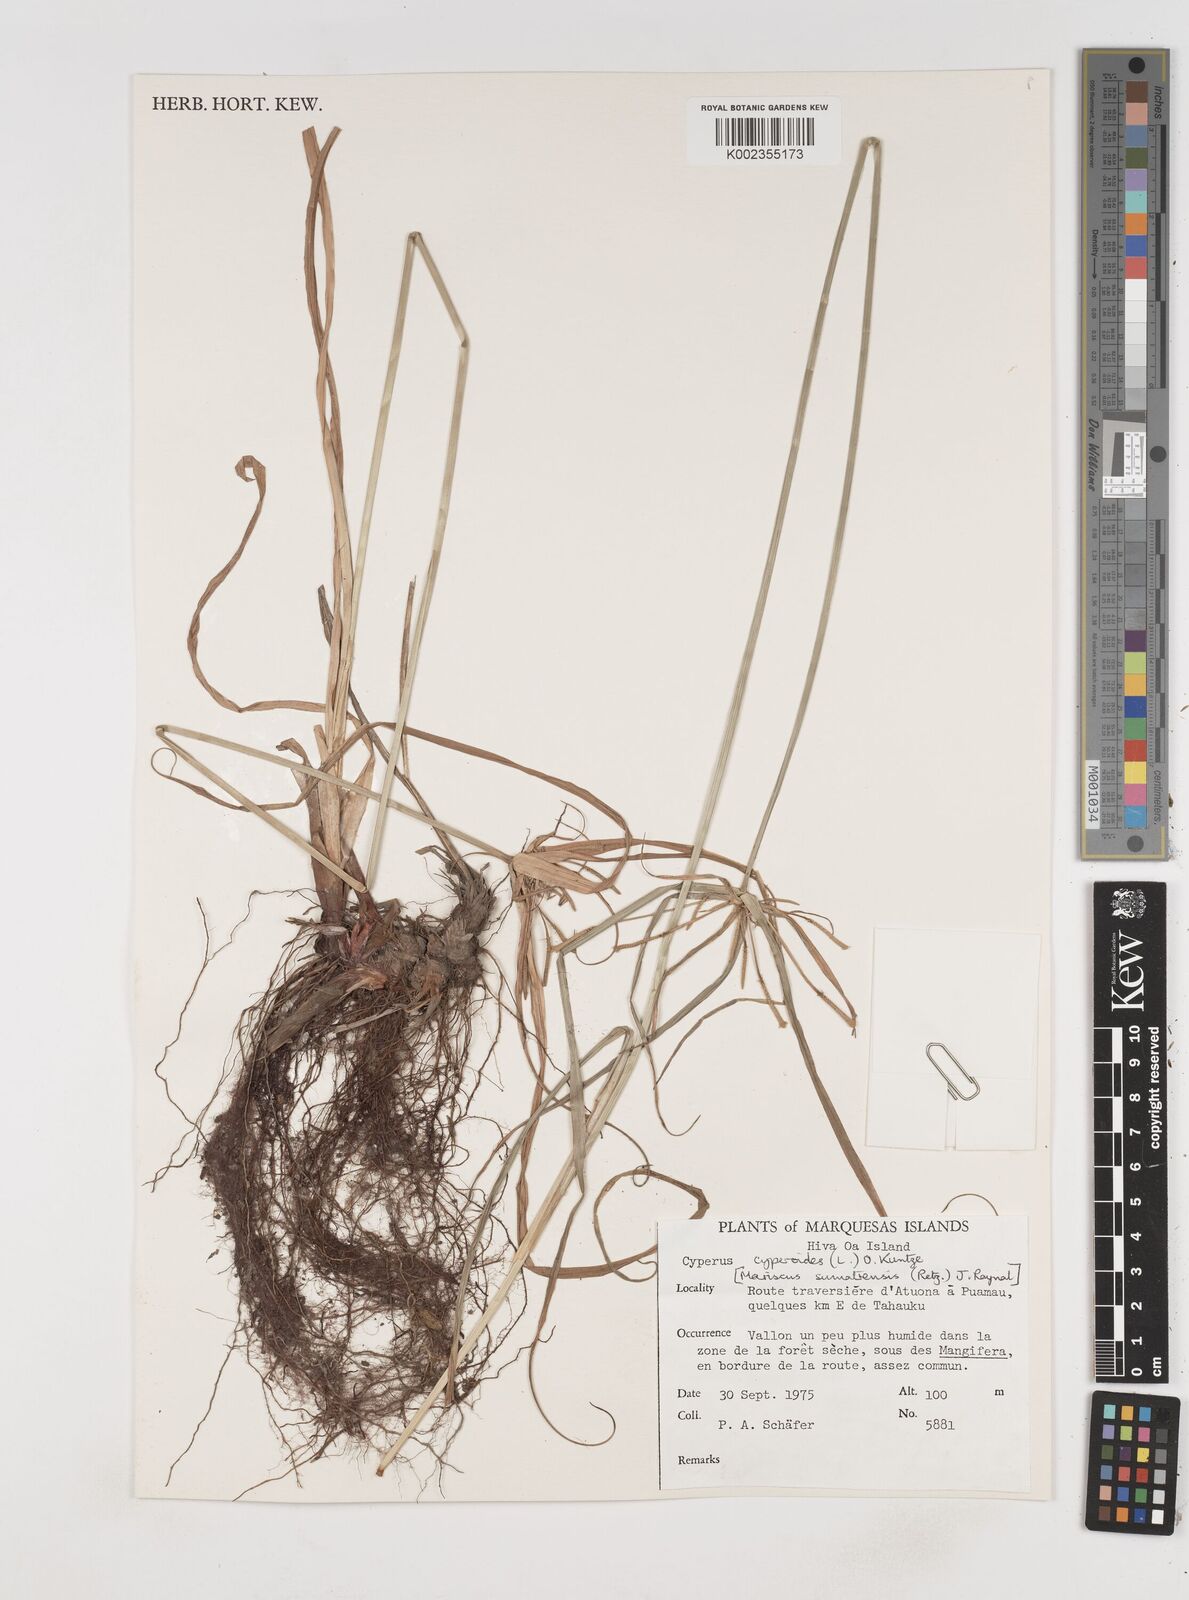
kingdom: Plantae
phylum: Tracheophyta
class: Liliopsida
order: Poales
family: Cyperaceae
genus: Cyperus
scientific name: Cyperus cyperoides
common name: Pacific island flat sedge
